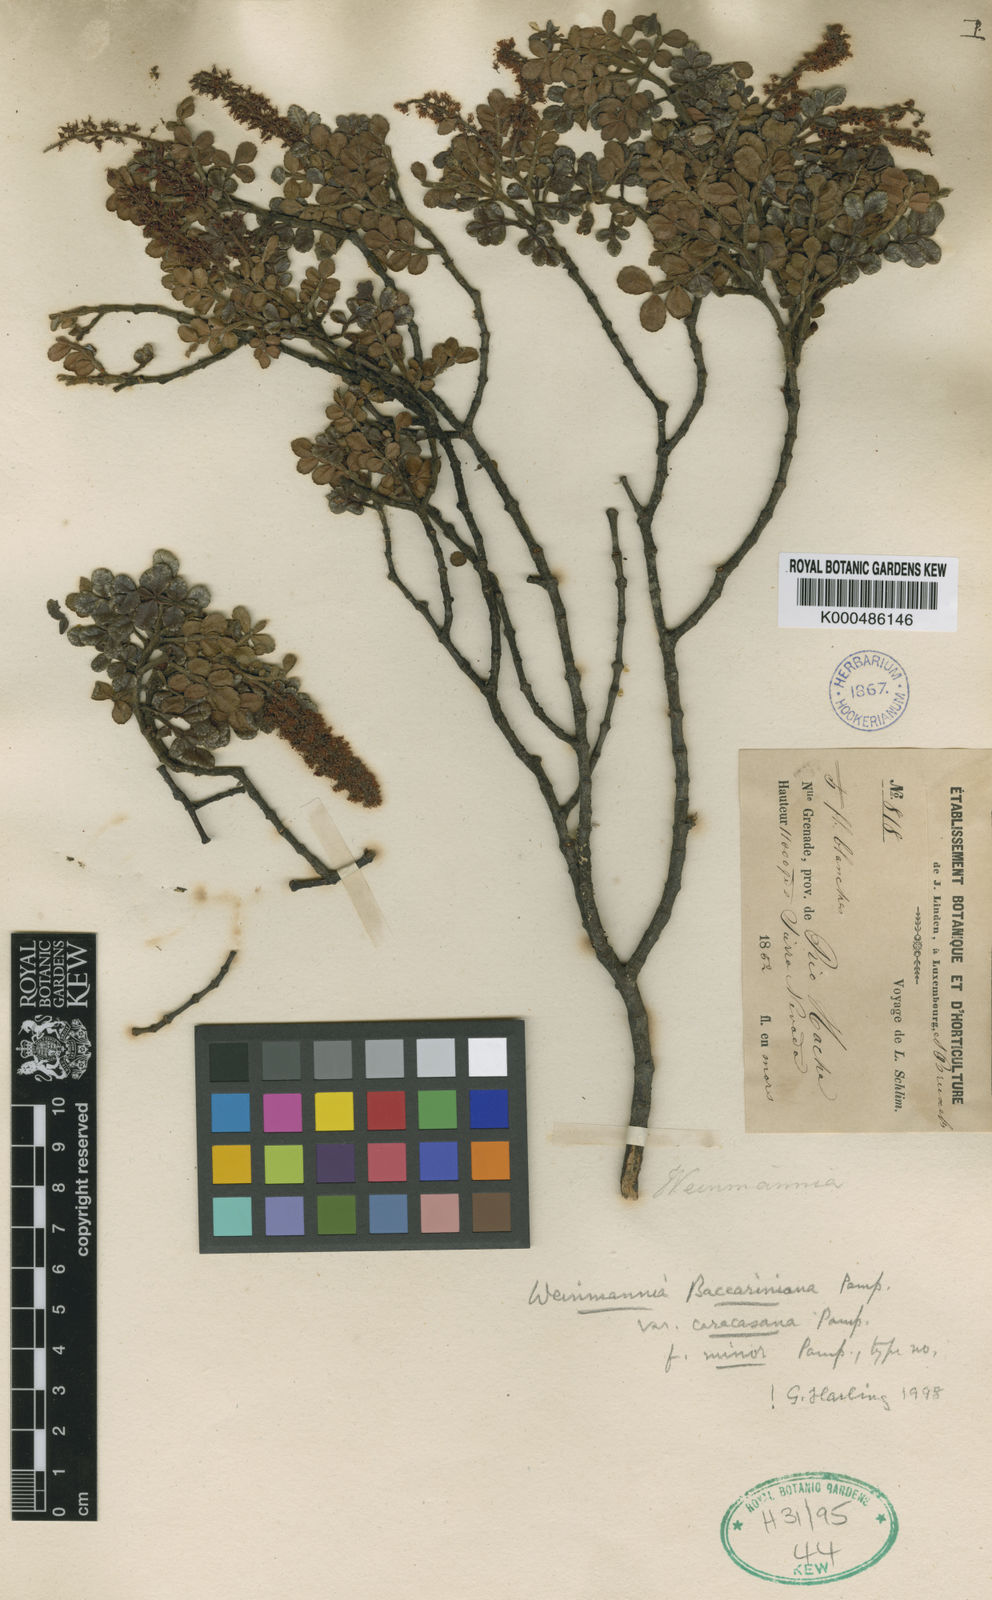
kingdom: Plantae
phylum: Tracheophyta
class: Magnoliopsida
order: Oxalidales
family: Cunoniaceae
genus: Weinmannia
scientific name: Weinmannia baccariniana
